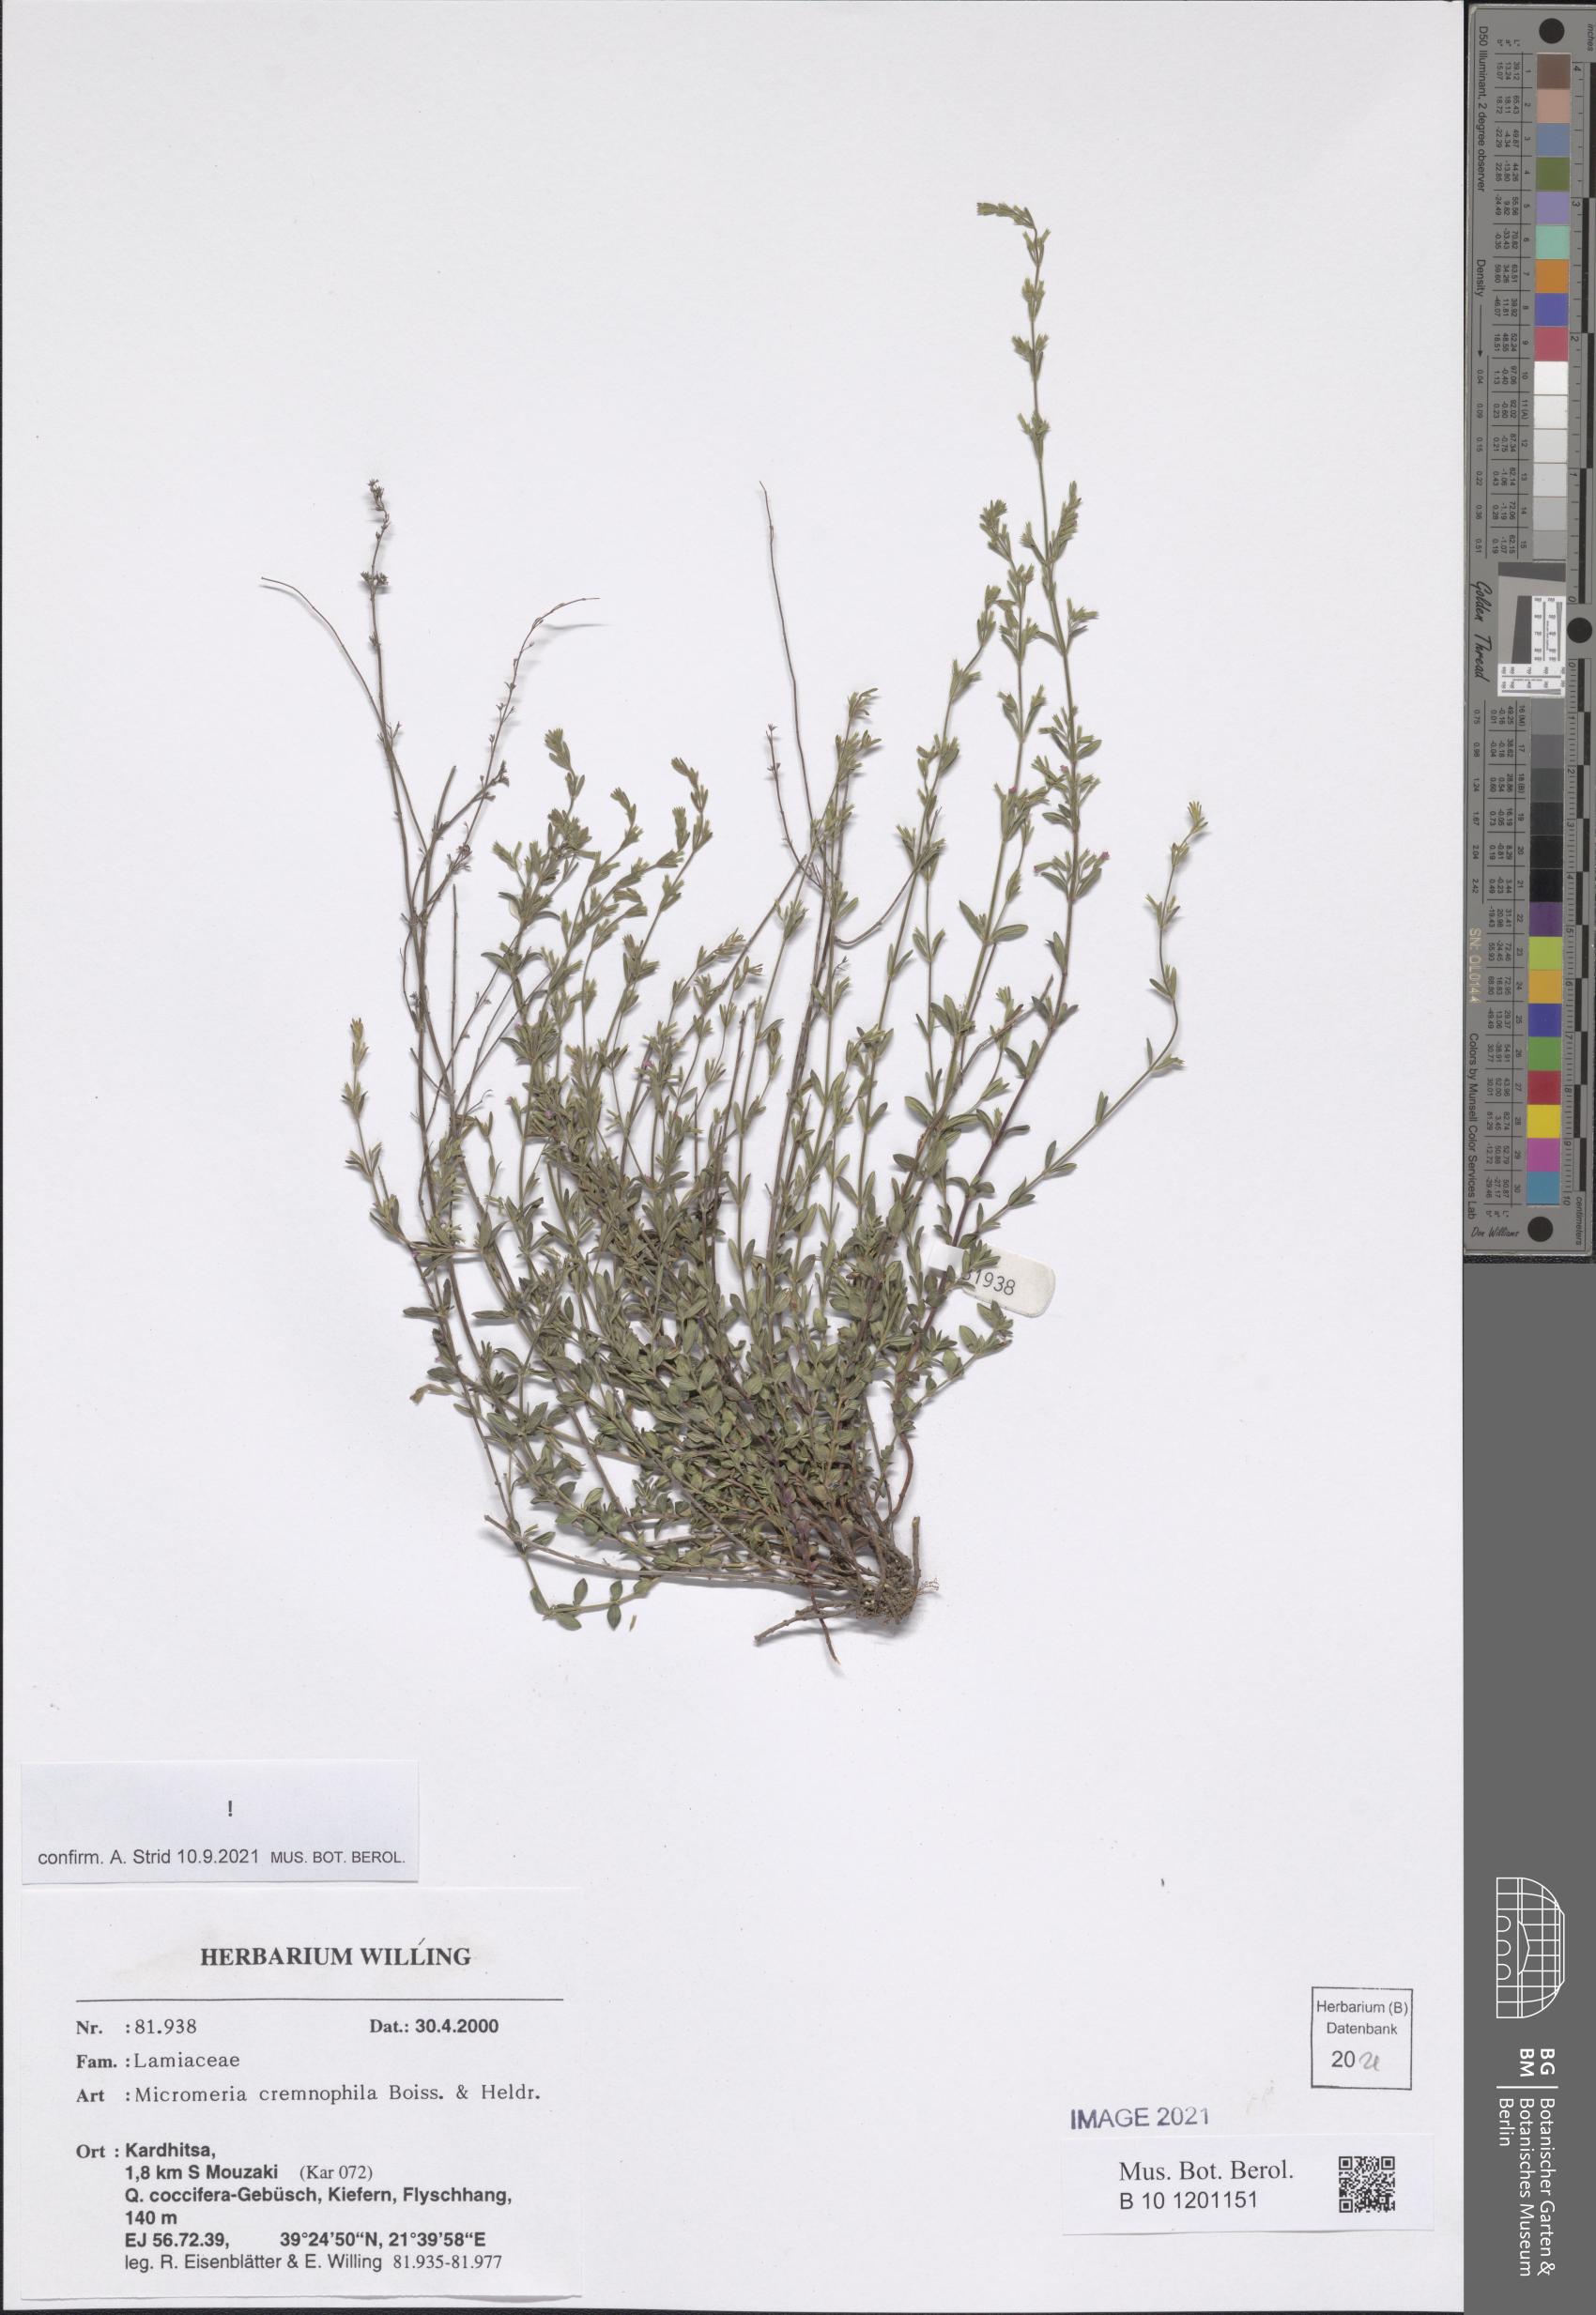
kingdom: Plantae
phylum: Tracheophyta
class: Magnoliopsida
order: Lamiales
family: Lamiaceae
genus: Micromeria
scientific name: Micromeria cremnophila
